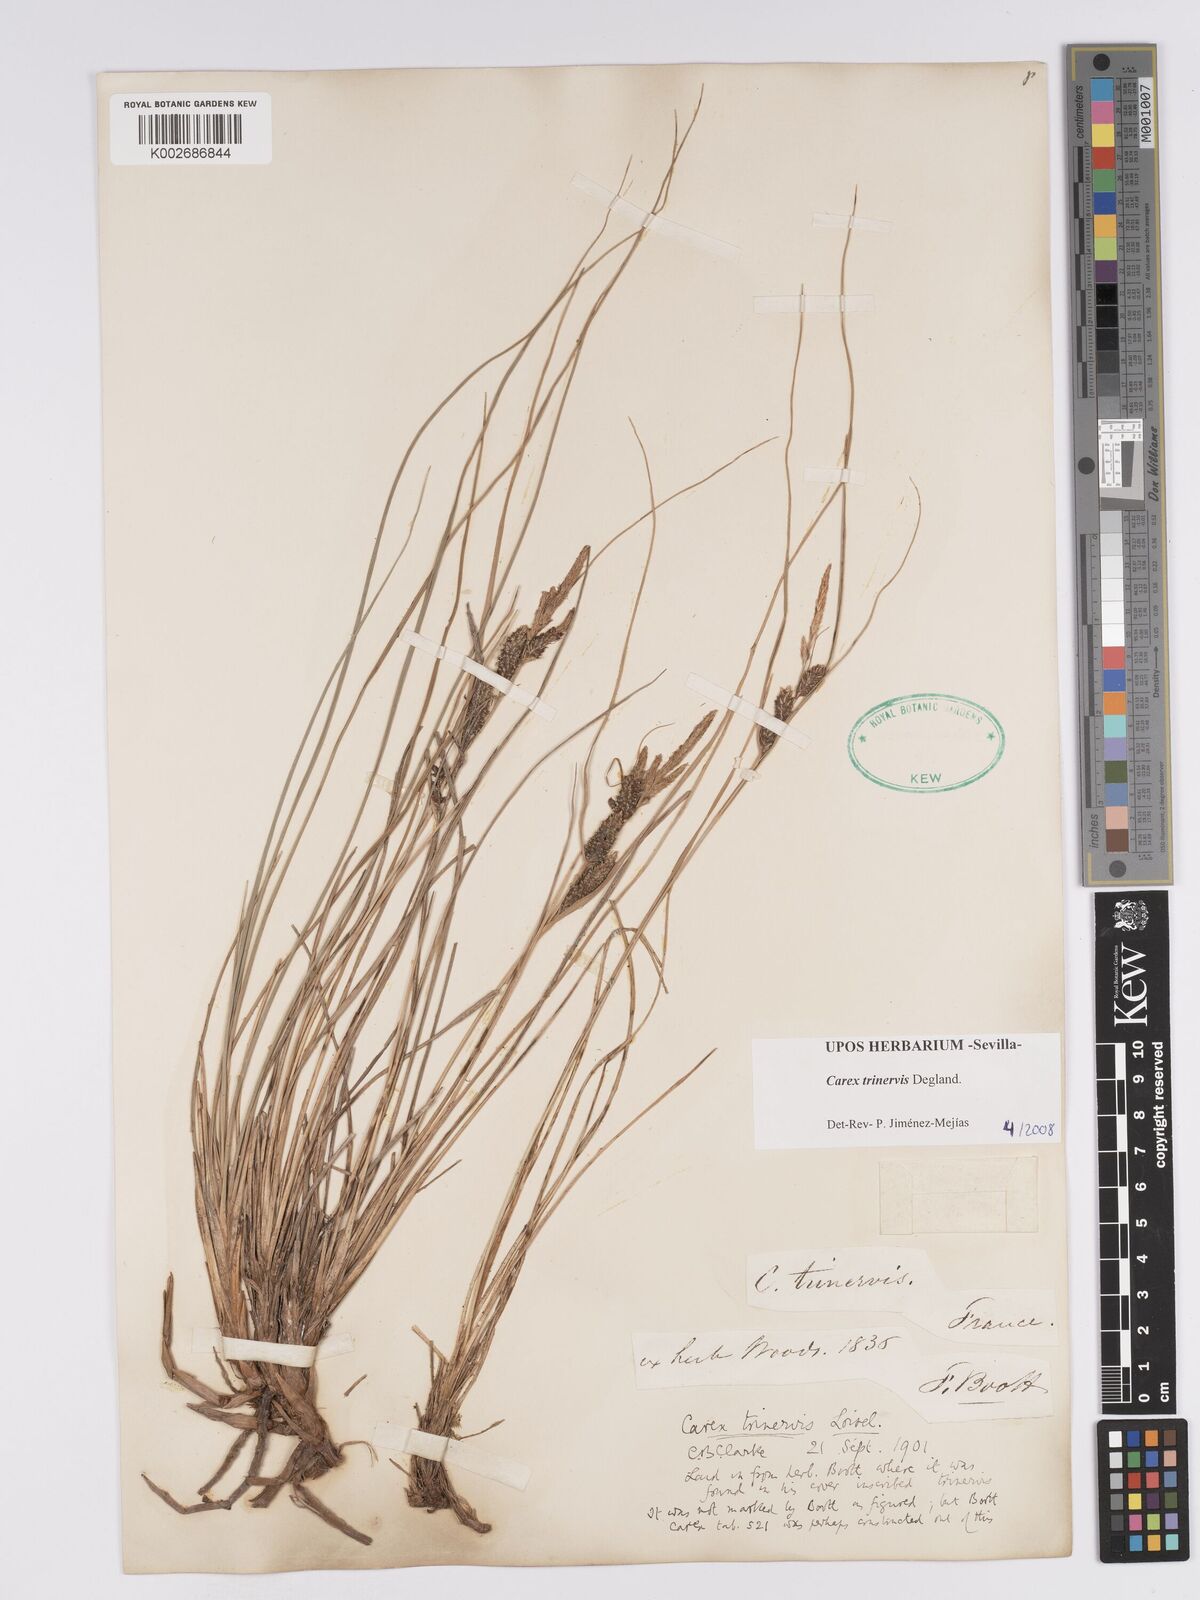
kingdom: Plantae
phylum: Tracheophyta
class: Liliopsida
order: Poales
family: Cyperaceae
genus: Carex
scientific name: Carex trinervis
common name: Three-nerved sedge
